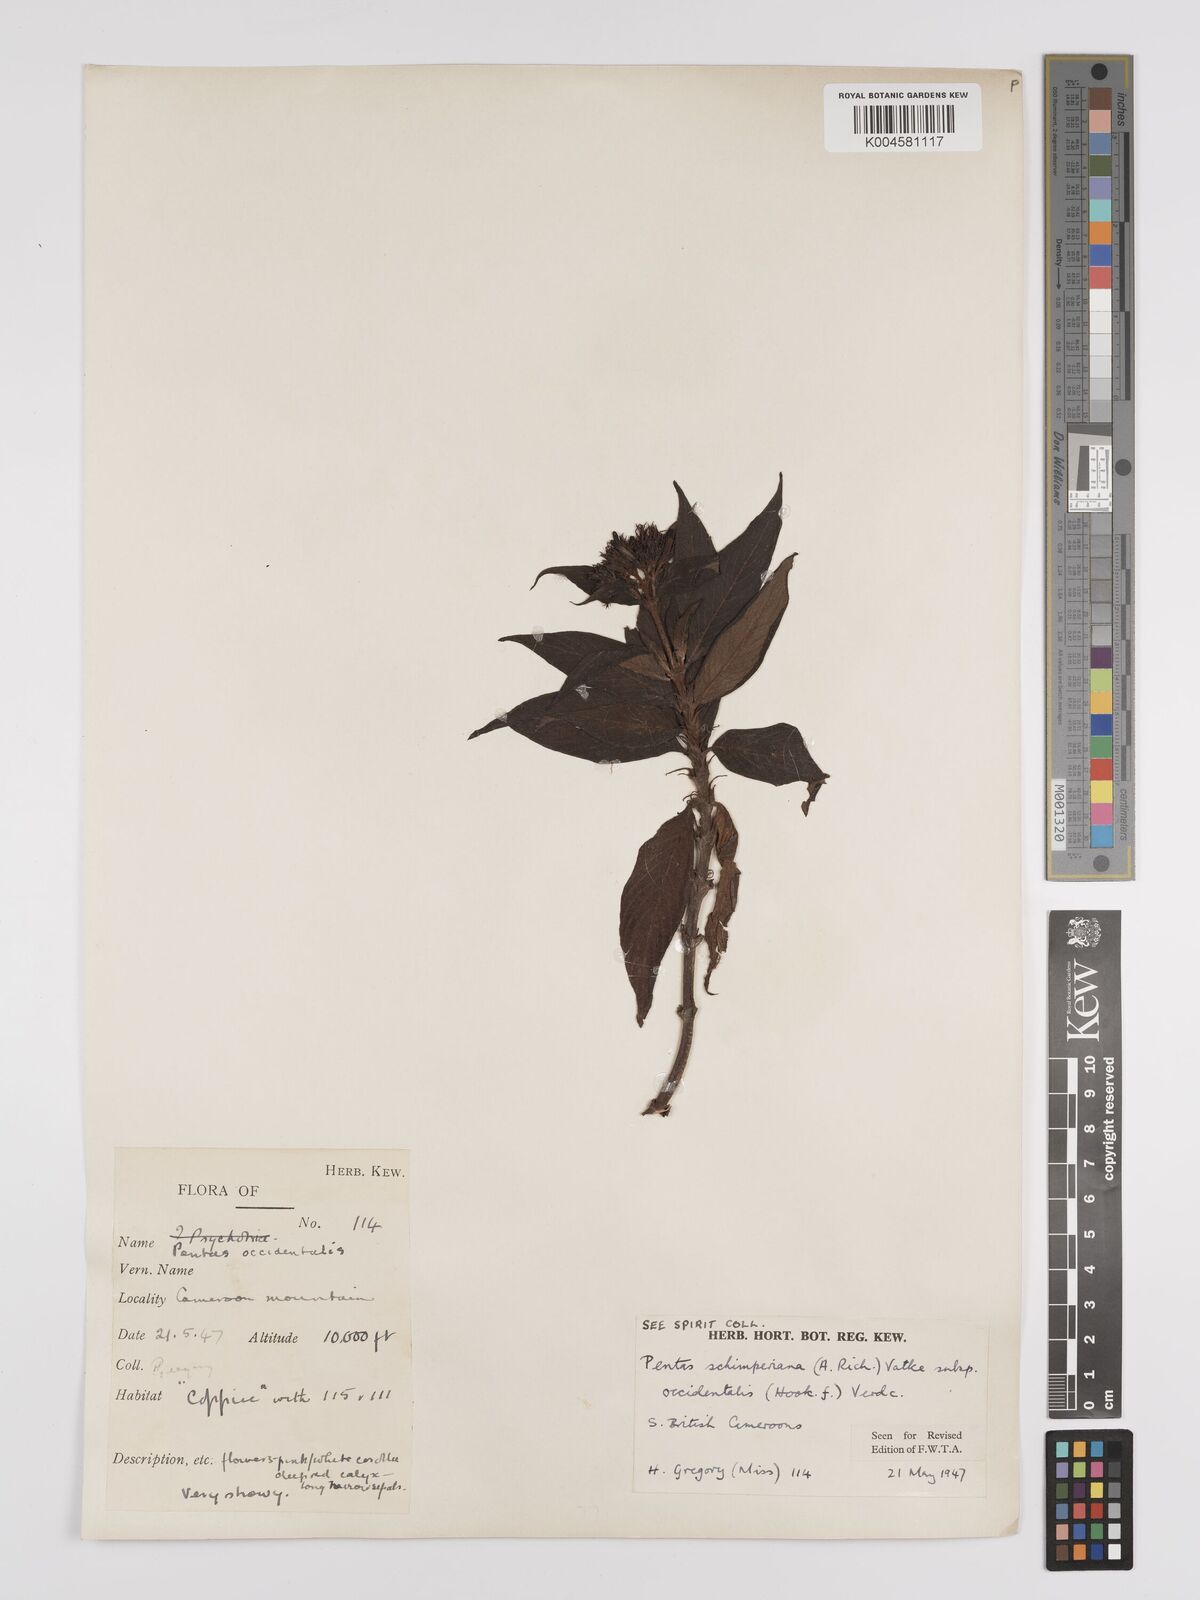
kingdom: Plantae
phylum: Tracheophyta
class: Magnoliopsida
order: Gentianales
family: Rubiaceae
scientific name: Rubiaceae
